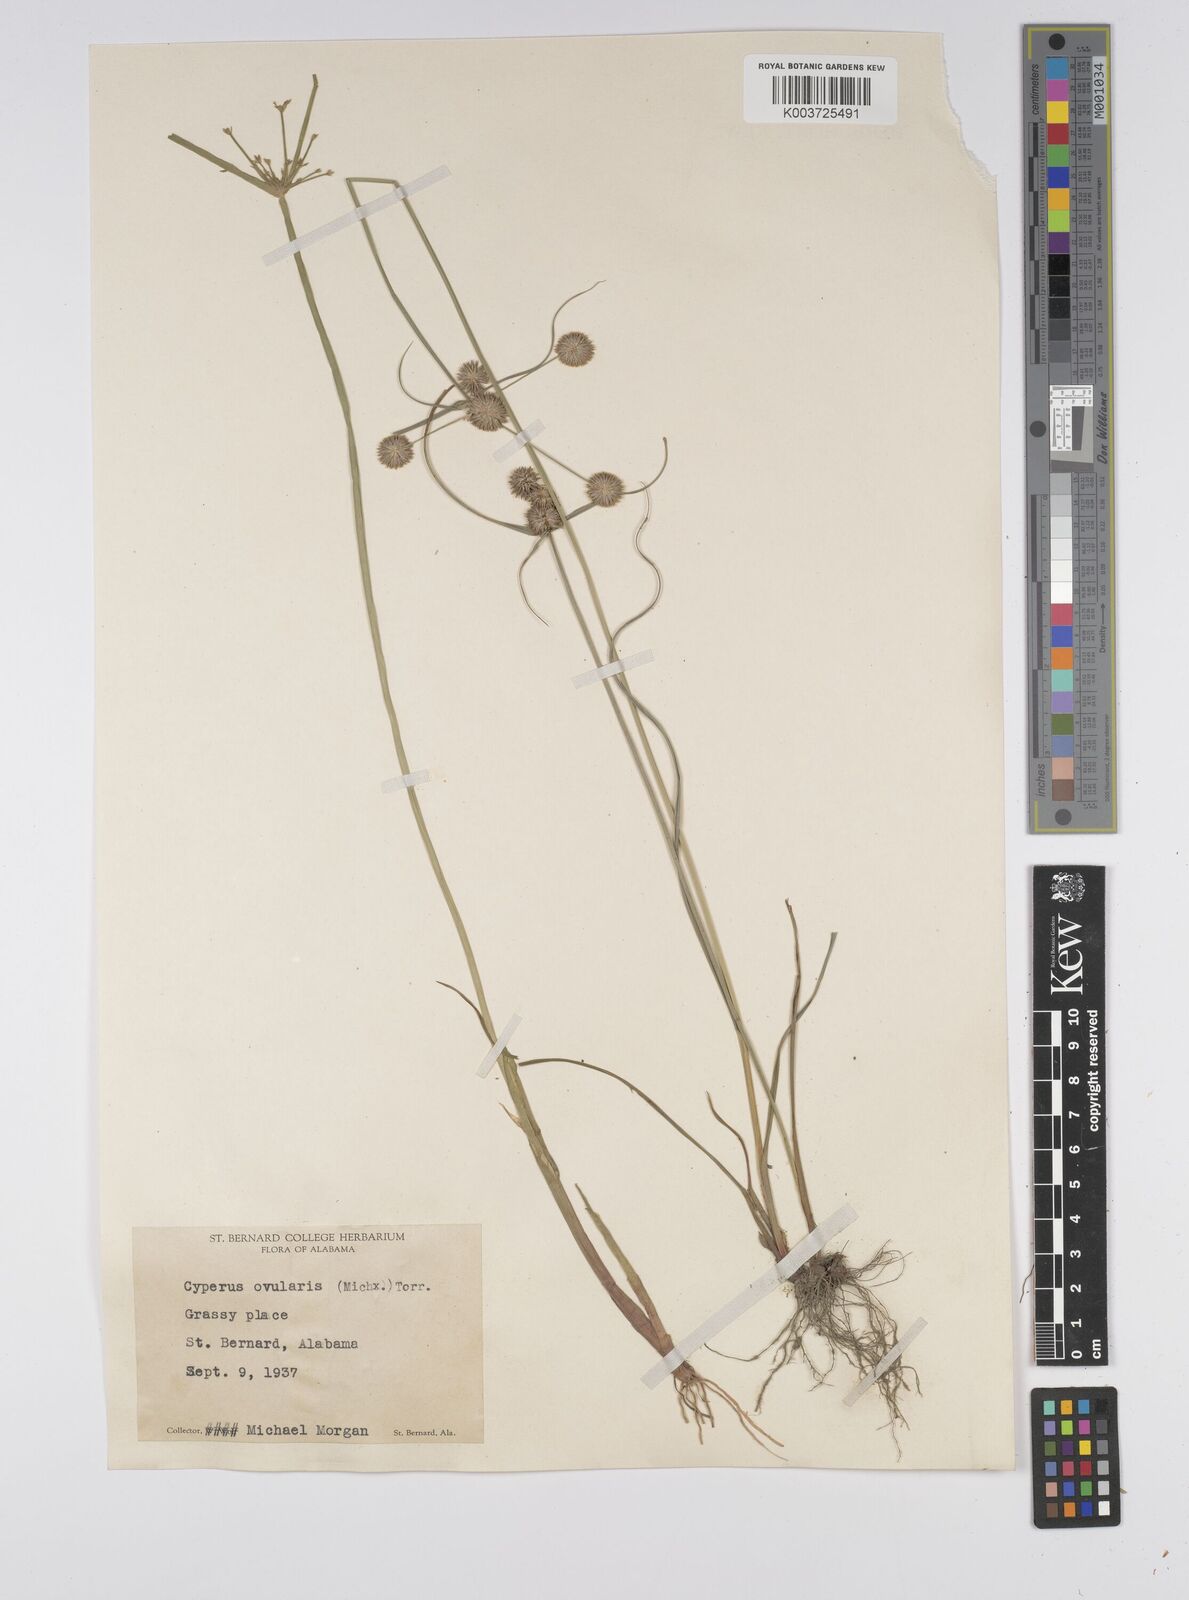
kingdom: Plantae
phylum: Tracheophyta
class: Liliopsida
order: Poales
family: Cyperaceae
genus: Cyperus
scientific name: Cyperus echinatus
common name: Teasel sedge
